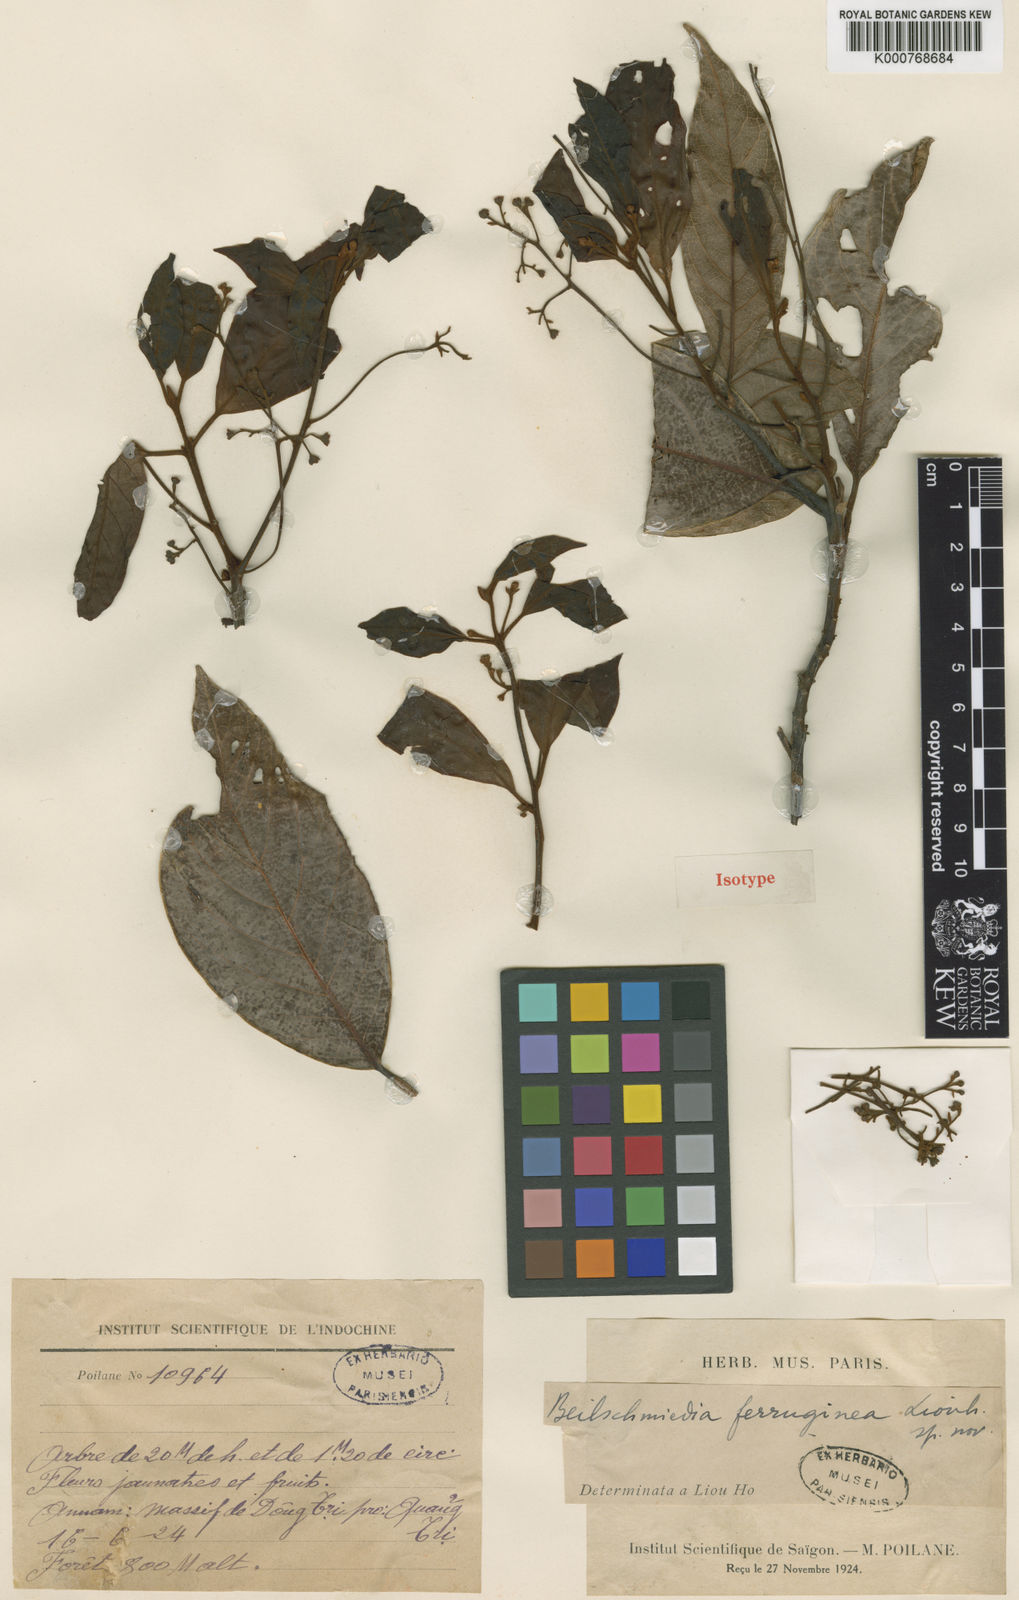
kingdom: Plantae
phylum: Tracheophyta
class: Magnoliopsida
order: Laurales
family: Lauraceae
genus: Beilschmiedia
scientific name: Beilschmiedia ferruginea
